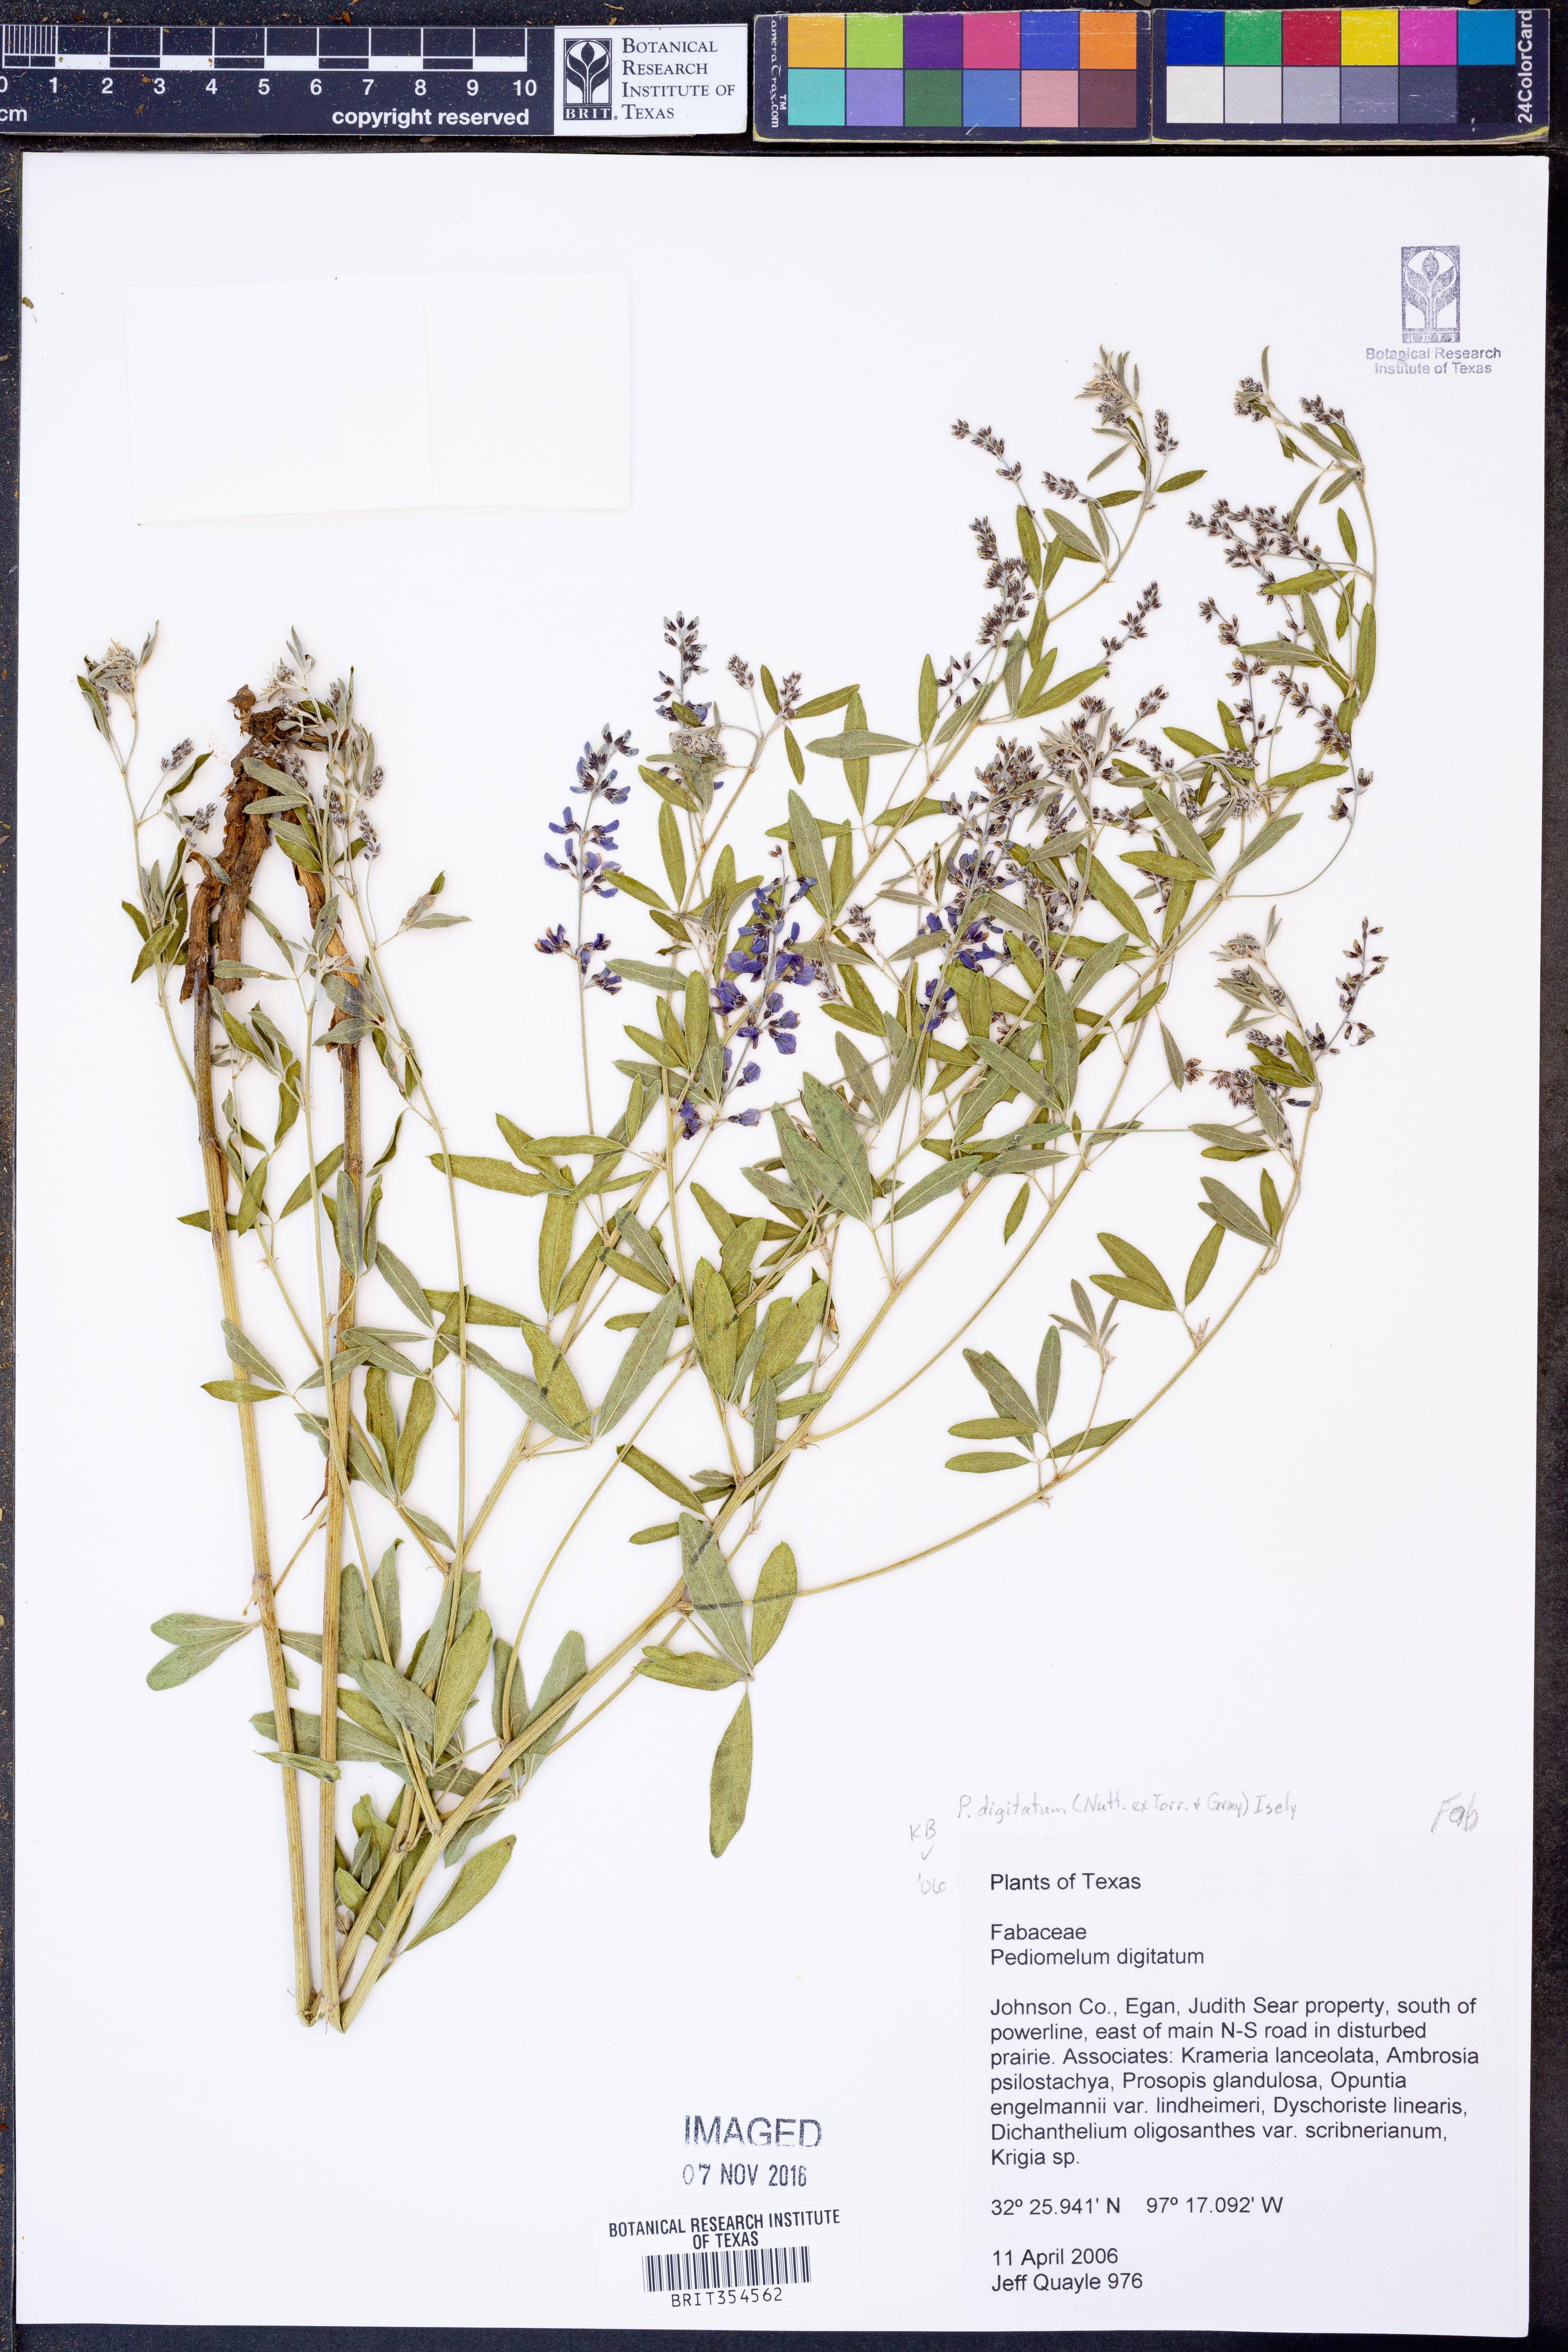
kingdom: Plantae
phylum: Tracheophyta
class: Magnoliopsida
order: Fabales
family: Fabaceae
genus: Pediomelum
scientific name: Pediomelum digitatum
